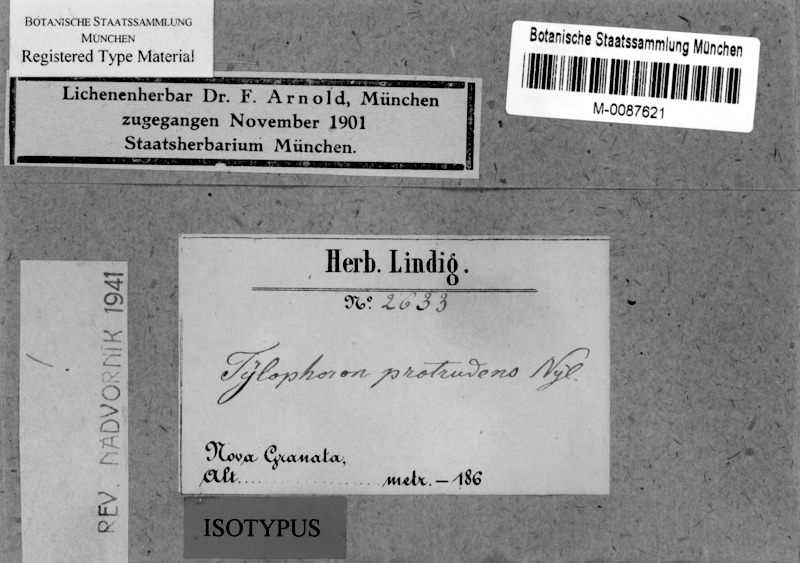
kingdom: Fungi
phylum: Ascomycota
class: Arthoniomycetes
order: Arthoniales
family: Arthoniaceae
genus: Tylophoron
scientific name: Tylophoron protrudens
